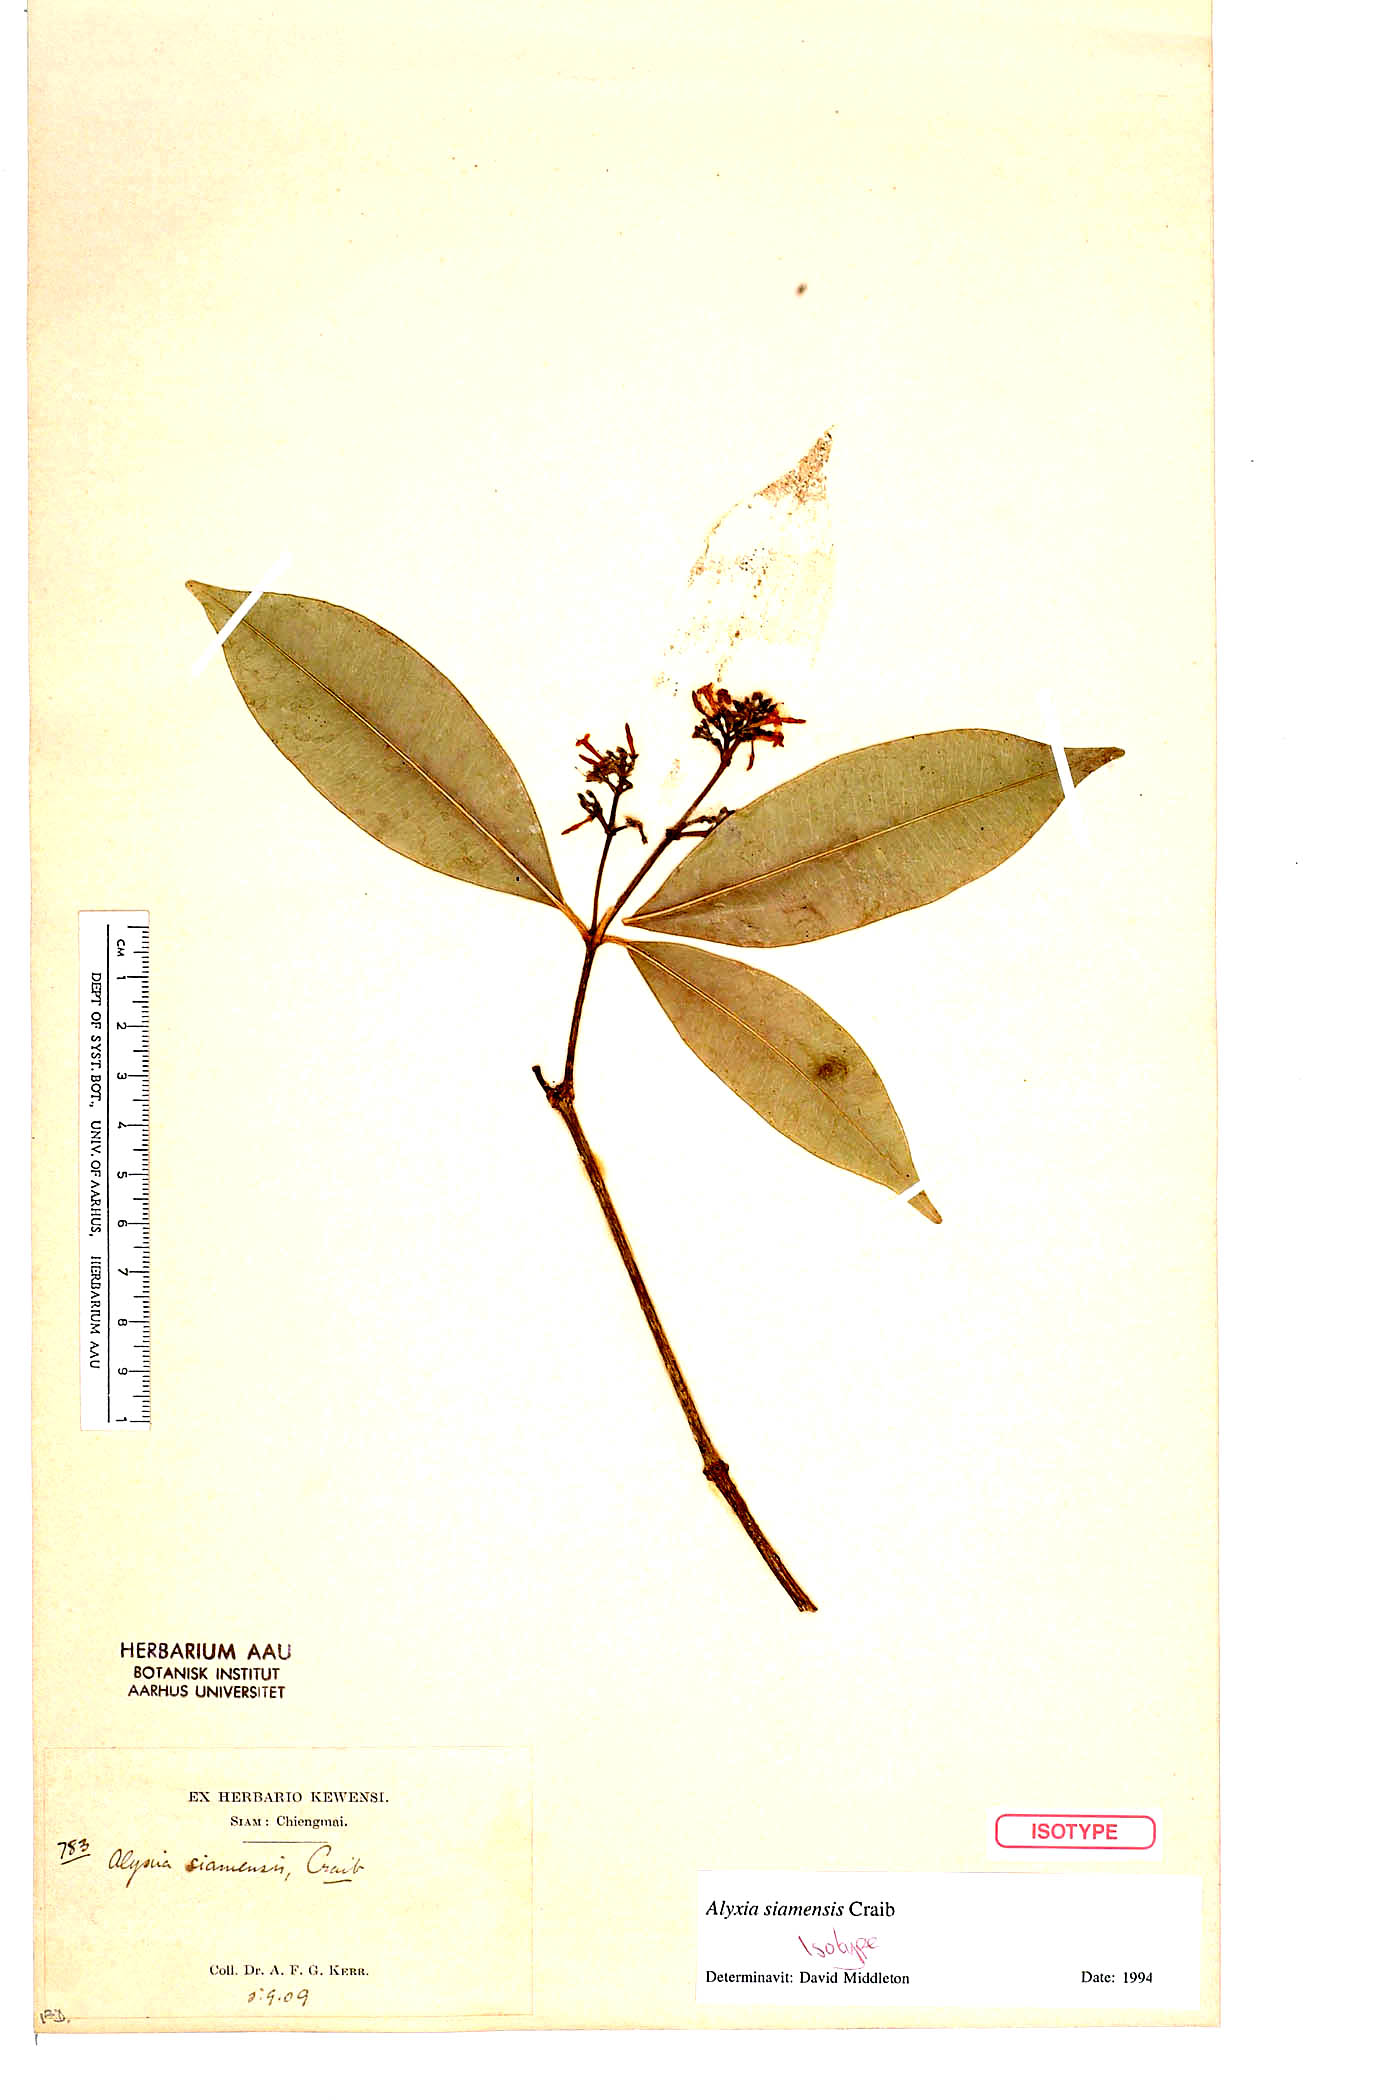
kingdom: Plantae
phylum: Tracheophyta
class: Magnoliopsida
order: Gentianales
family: Apocynaceae
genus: Alyxia
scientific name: Alyxia siamensis
